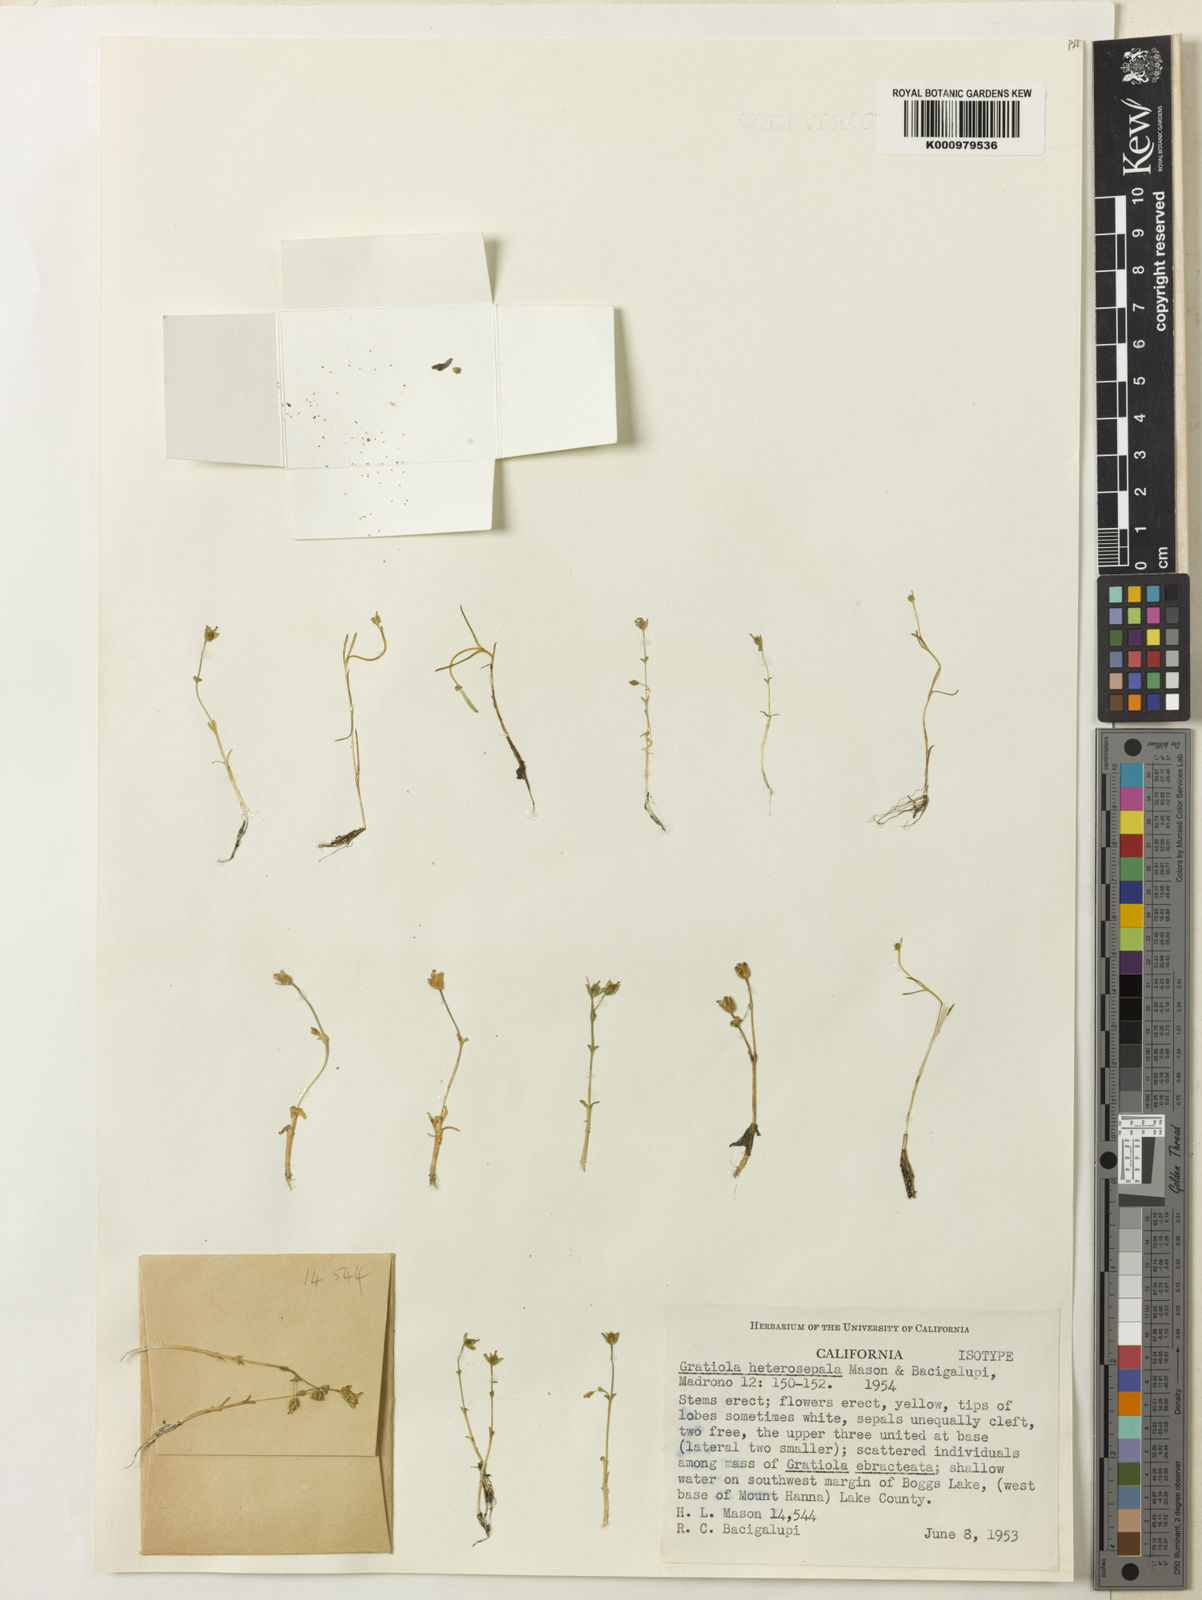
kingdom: Plantae
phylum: Tracheophyta
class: Magnoliopsida
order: Lamiales
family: Plantaginaceae
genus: Gratiola
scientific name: Gratiola heterosepala
